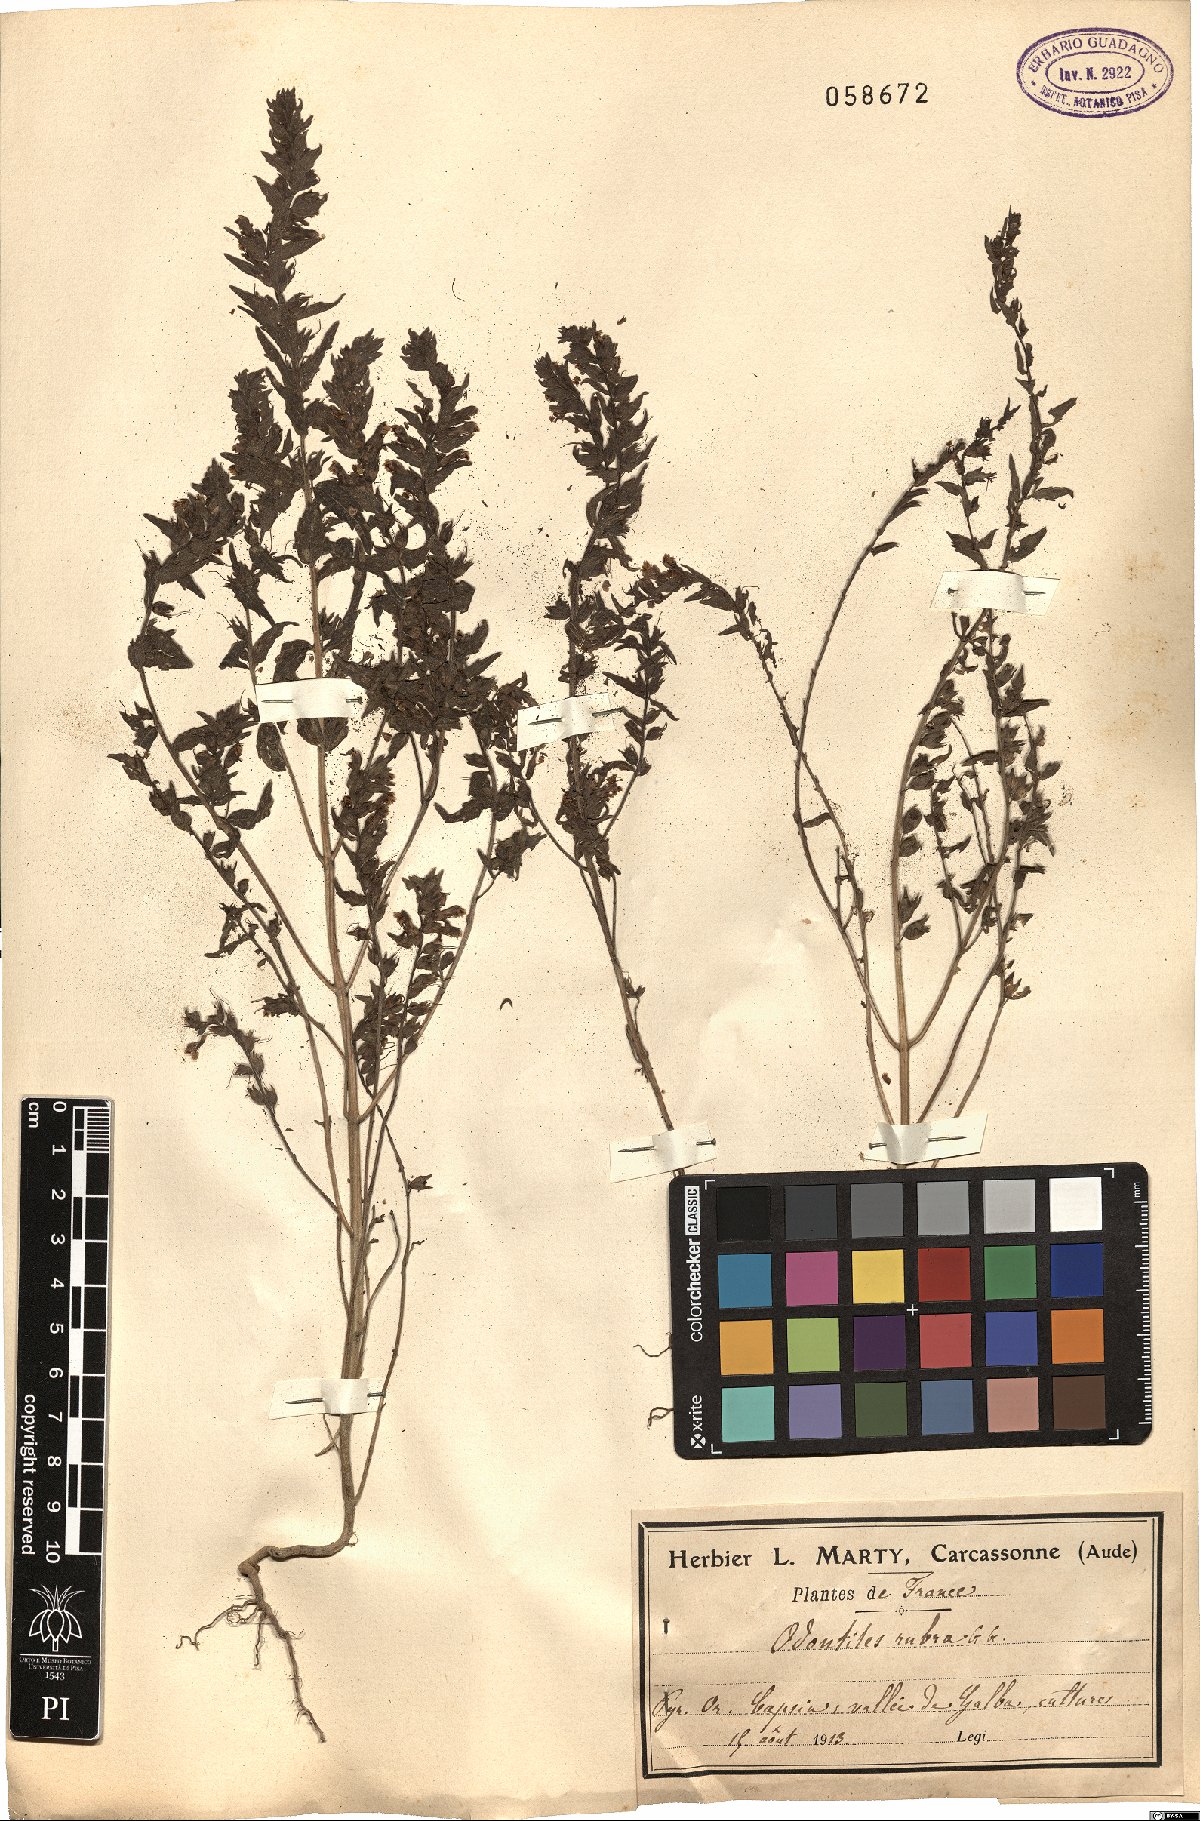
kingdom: Plantae
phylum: Tracheophyta
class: Magnoliopsida
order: Lamiales
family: Orobanchaceae
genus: Odontites
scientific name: Odontites vulgaris
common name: Broomrape
